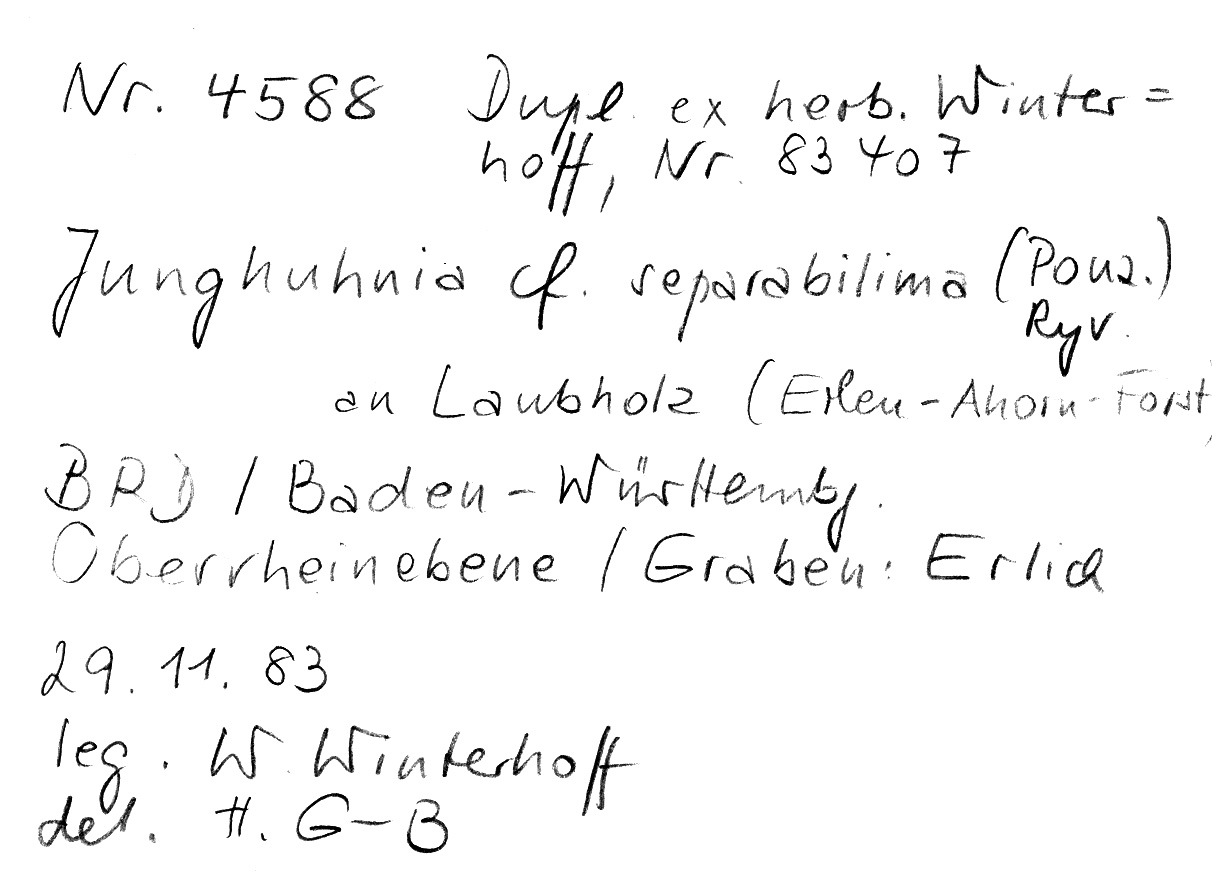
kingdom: Fungi
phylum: Basidiomycota
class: Agaricomycetes
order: Polyporales
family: Steccherinaceae
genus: Steccherinum
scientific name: Steccherinum lacerum
